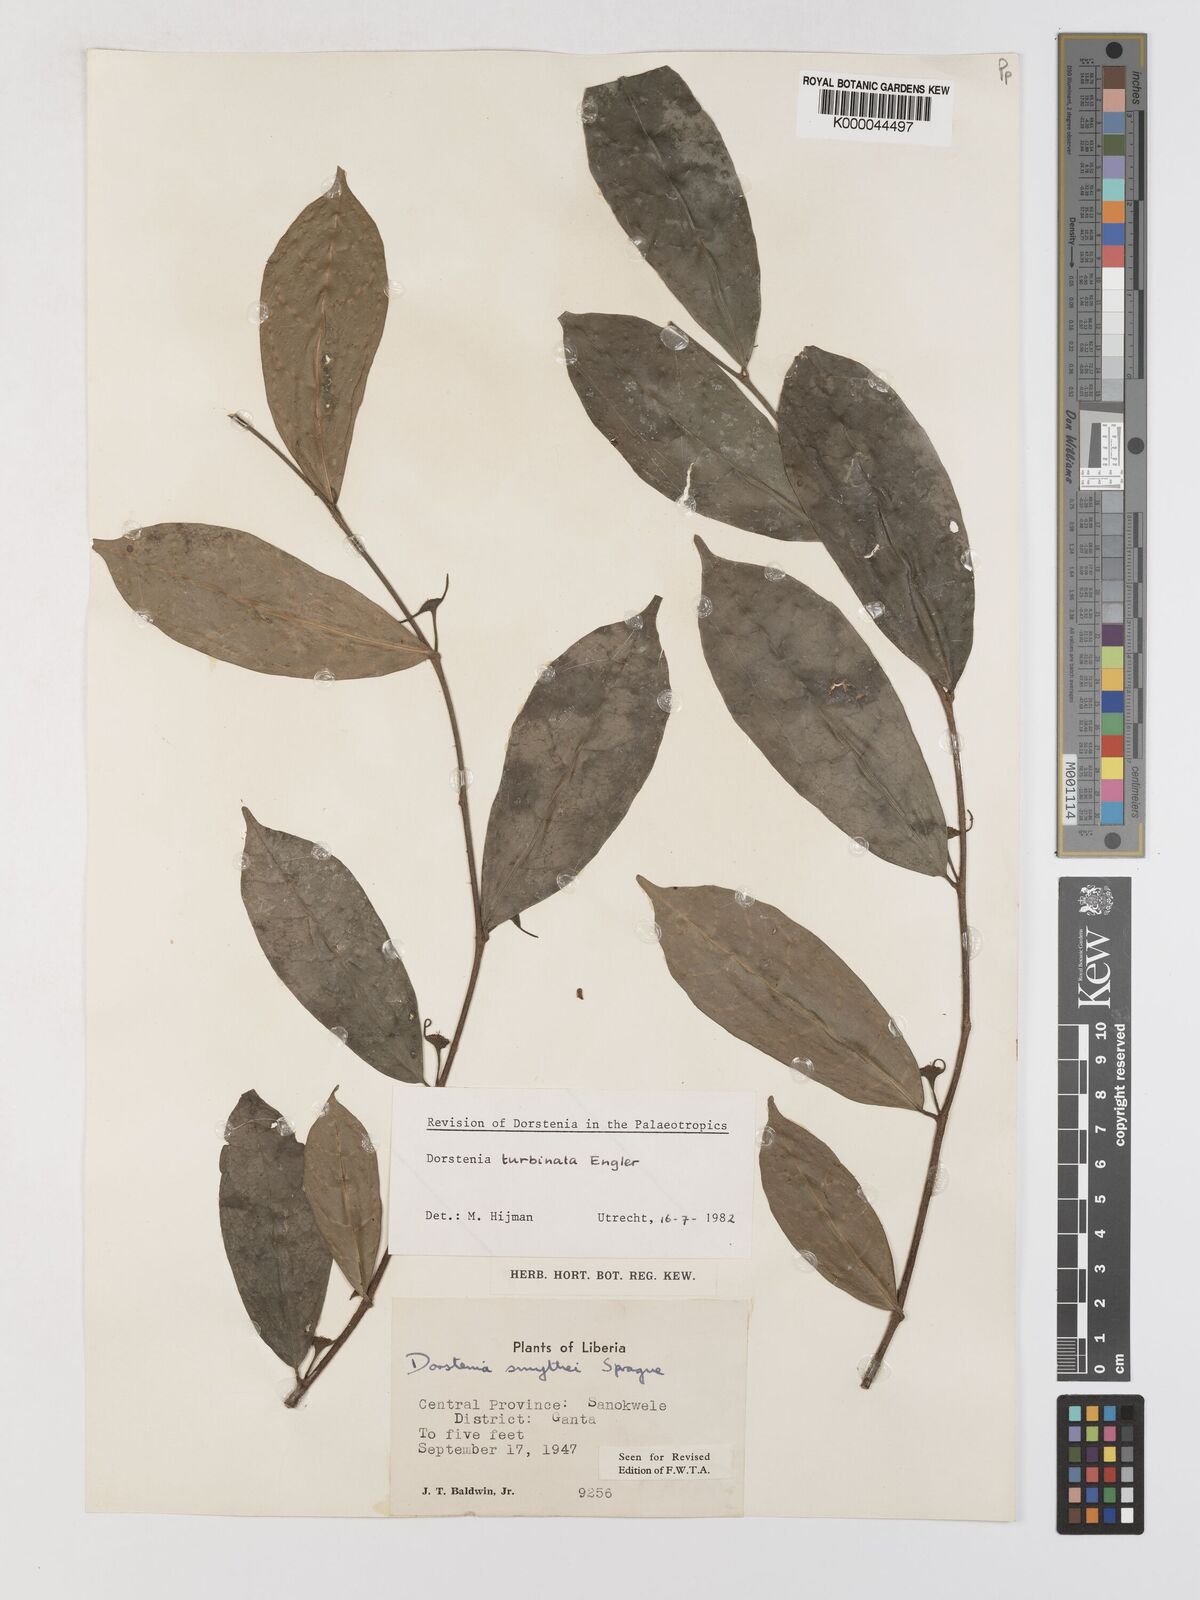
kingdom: Plantae
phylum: Tracheophyta
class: Magnoliopsida
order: Rosales
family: Moraceae
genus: Hijmania
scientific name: Hijmania turbinata
